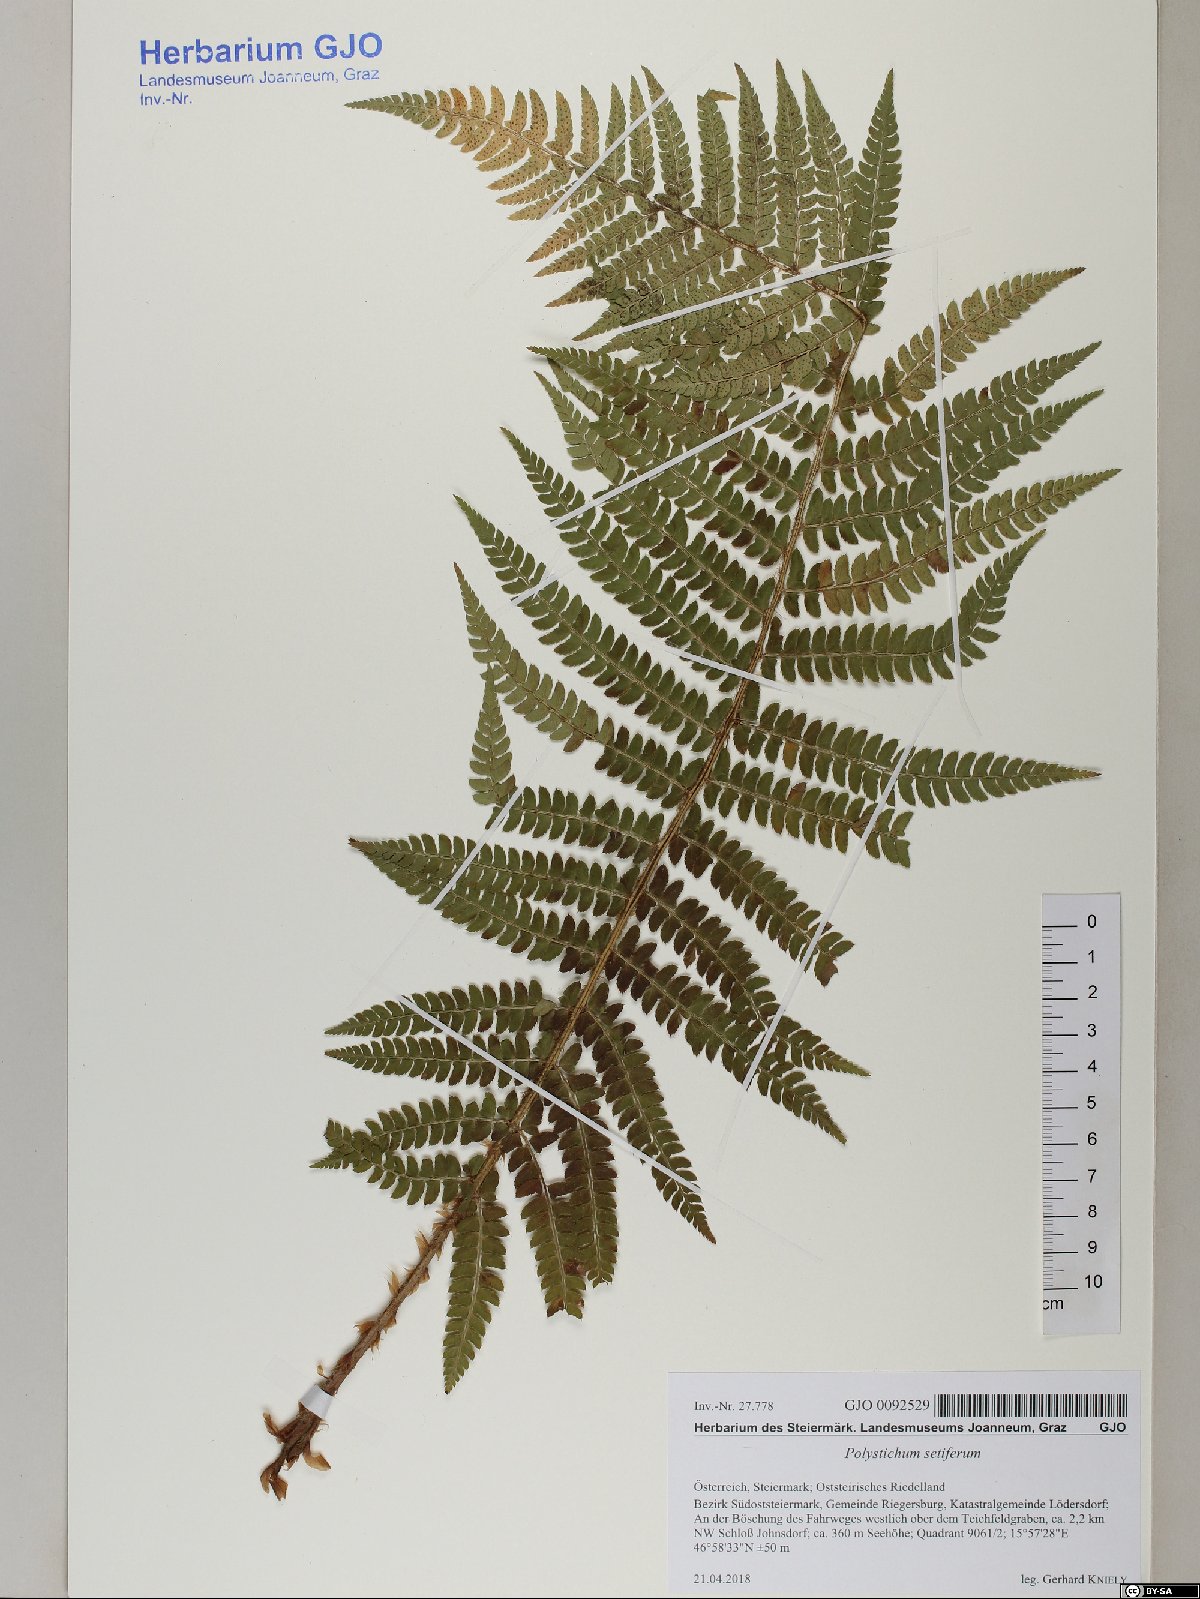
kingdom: Plantae
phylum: Tracheophyta
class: Polypodiopsida
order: Polypodiales
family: Dryopteridaceae
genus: Polystichum
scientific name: Polystichum setiferum
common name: Soft shield-fern
